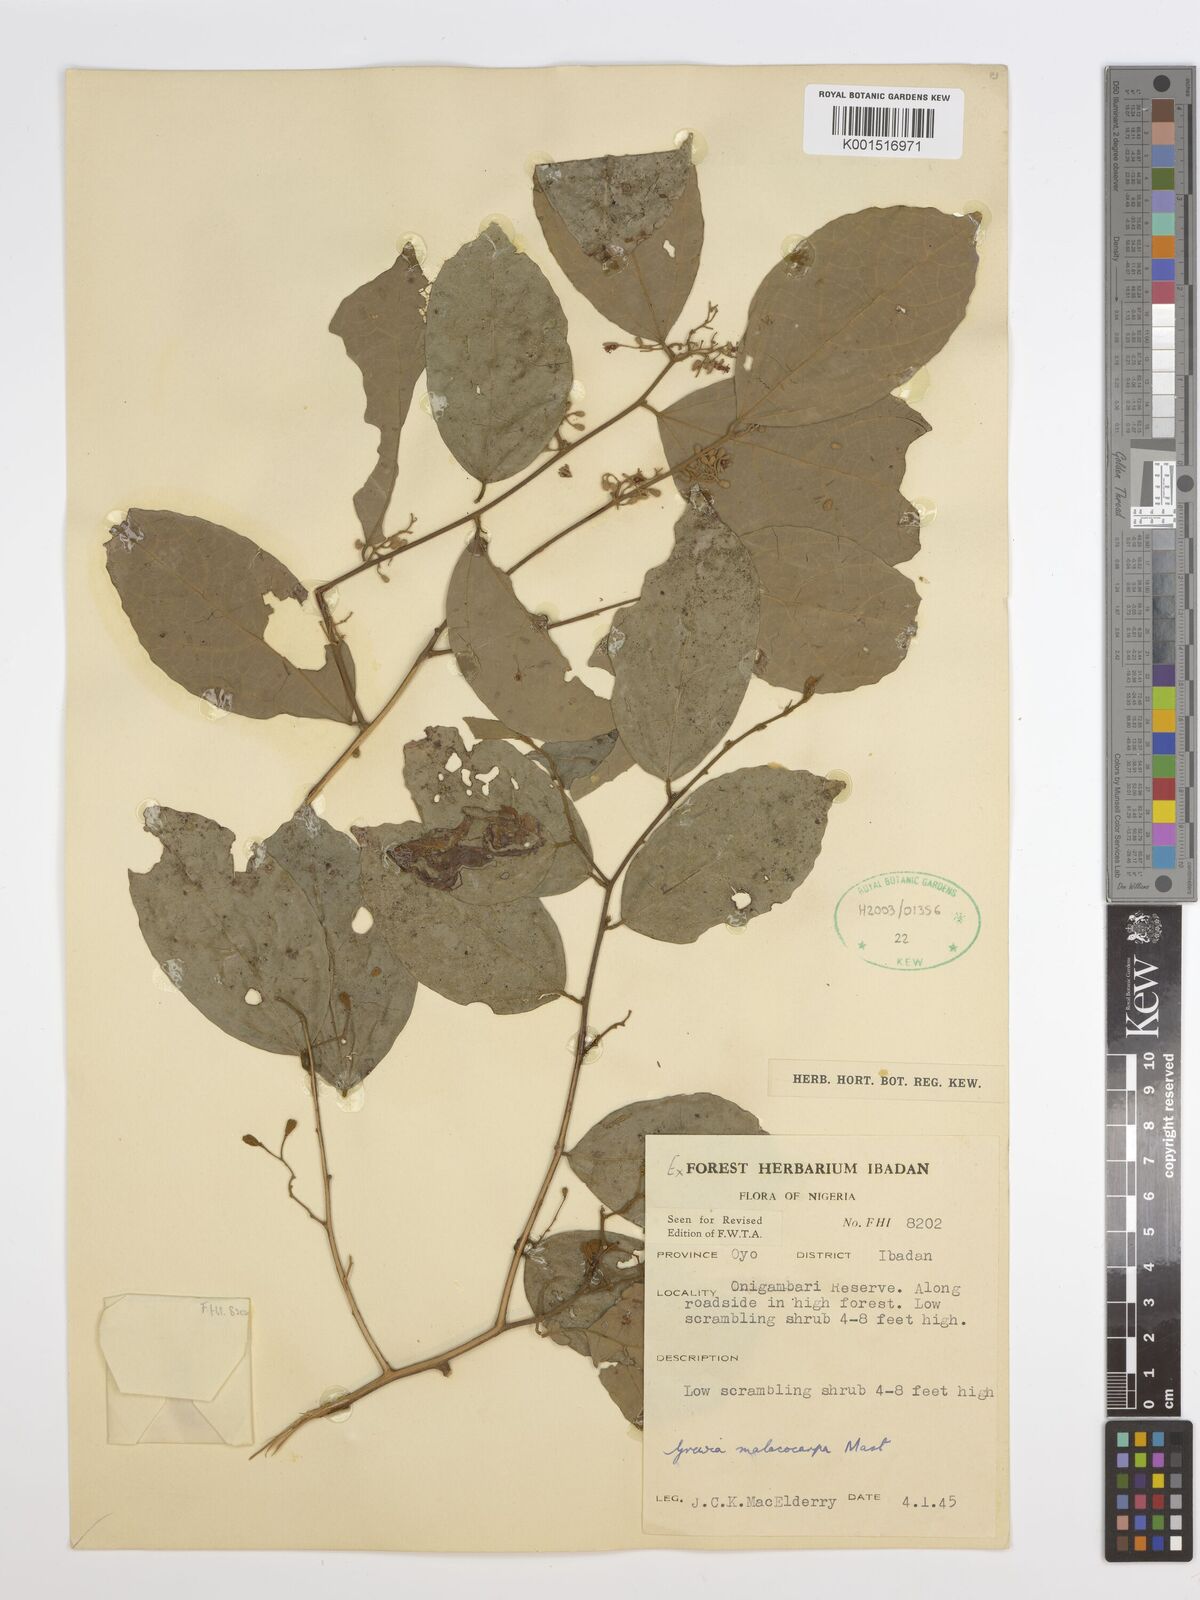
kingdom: Plantae
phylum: Tracheophyta
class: Magnoliopsida
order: Malvales
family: Malvaceae
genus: Microcos
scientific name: Microcos malacocarpa
